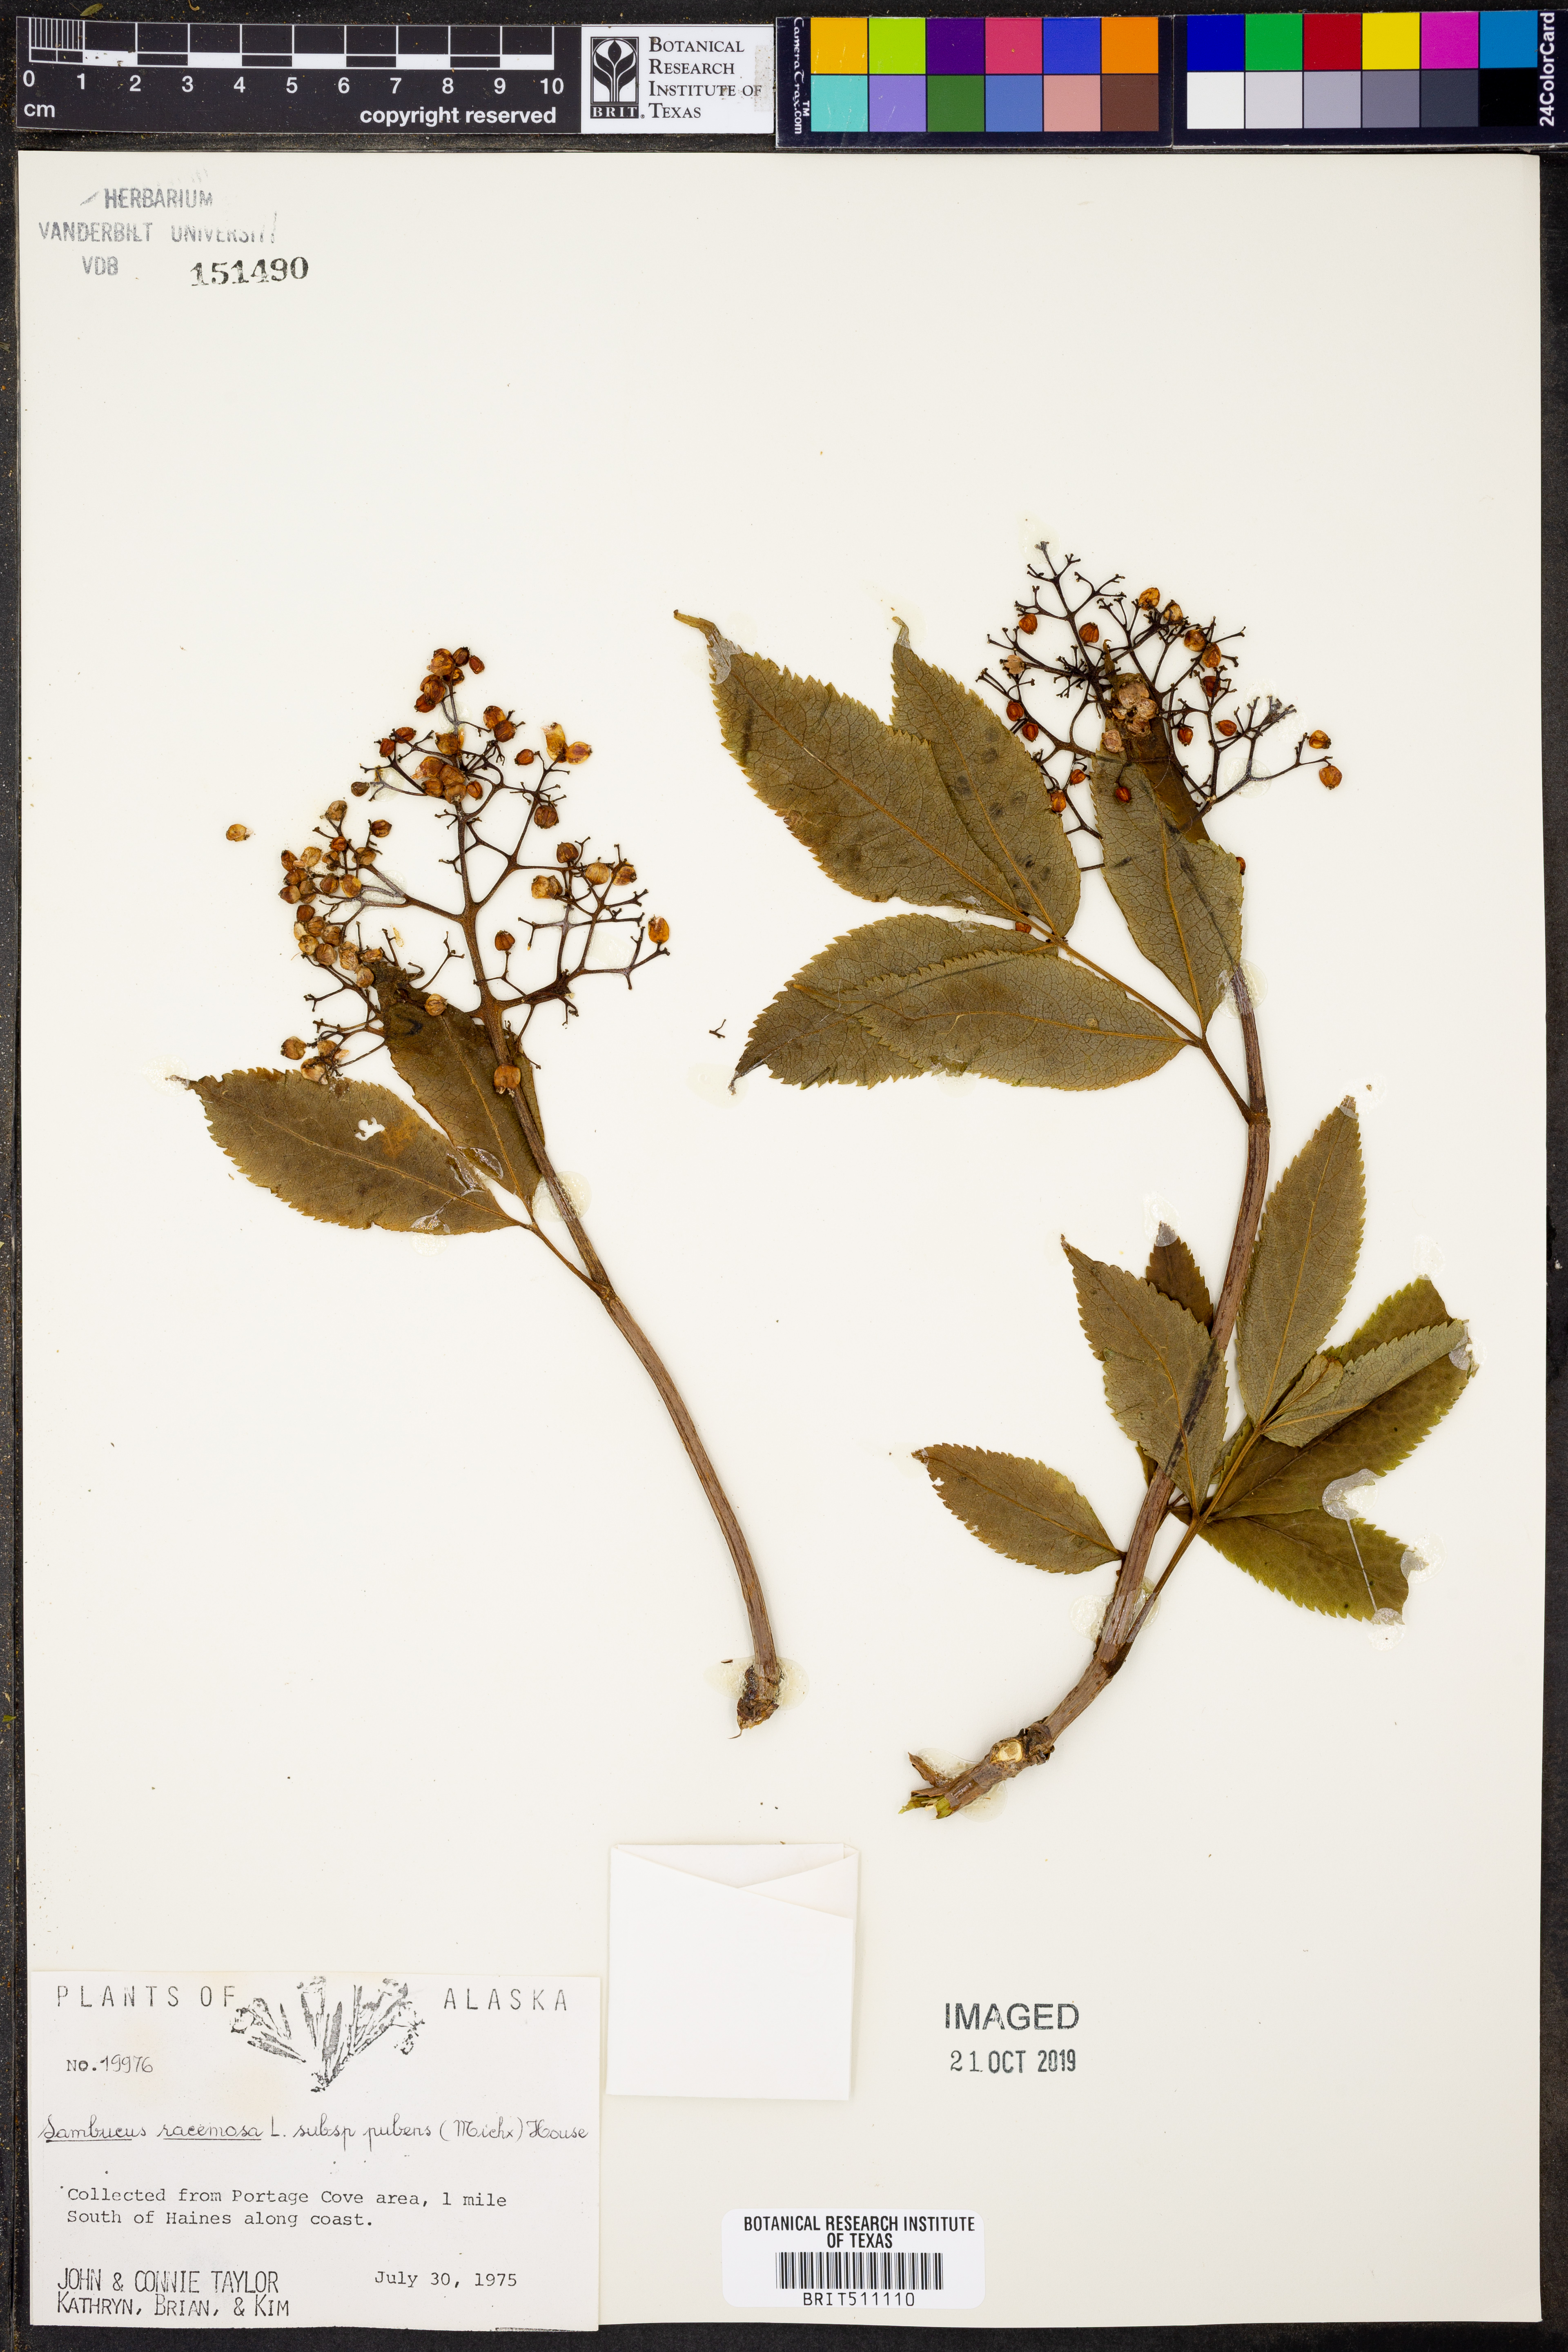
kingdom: Plantae
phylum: Tracheophyta
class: Magnoliopsida
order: Dipsacales
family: Viburnaceae
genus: Sambucus
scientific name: Sambucus racemosa
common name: Red-berried elder
